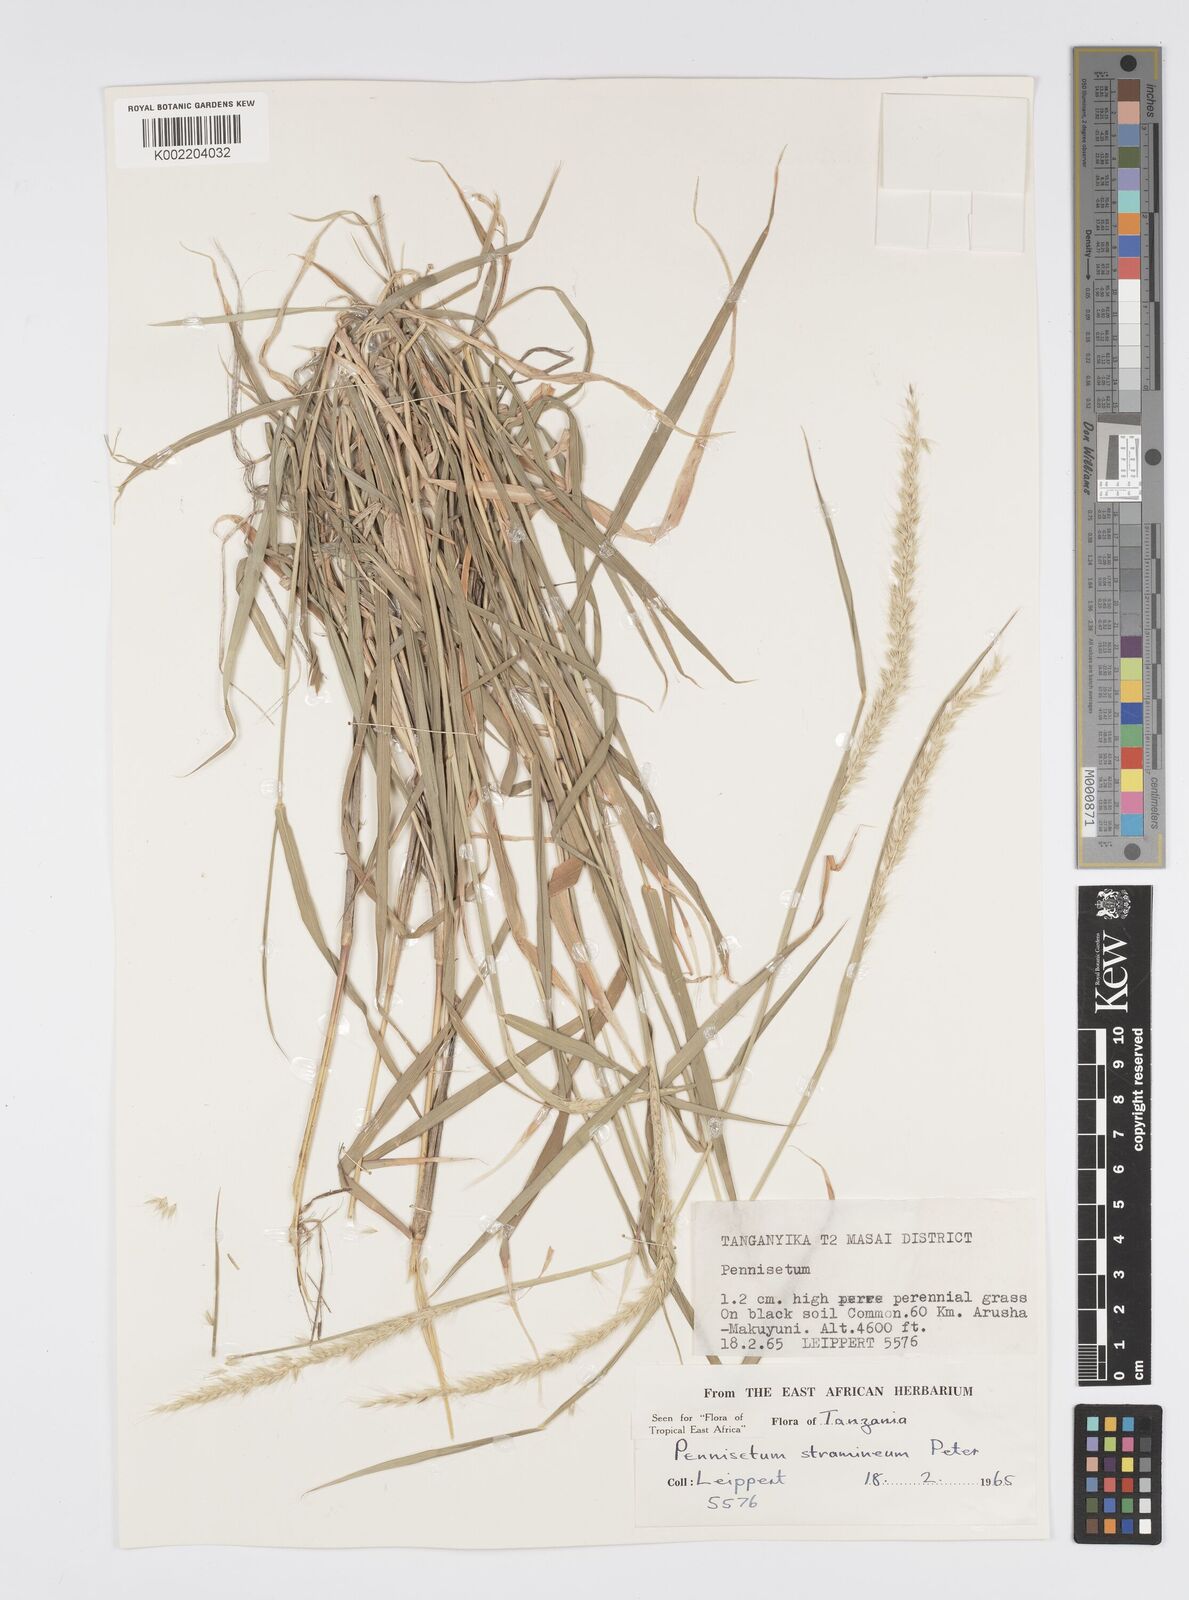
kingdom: Plantae
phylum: Tracheophyta
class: Liliopsida
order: Poales
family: Poaceae
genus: Cenchrus
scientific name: Cenchrus stramineus
